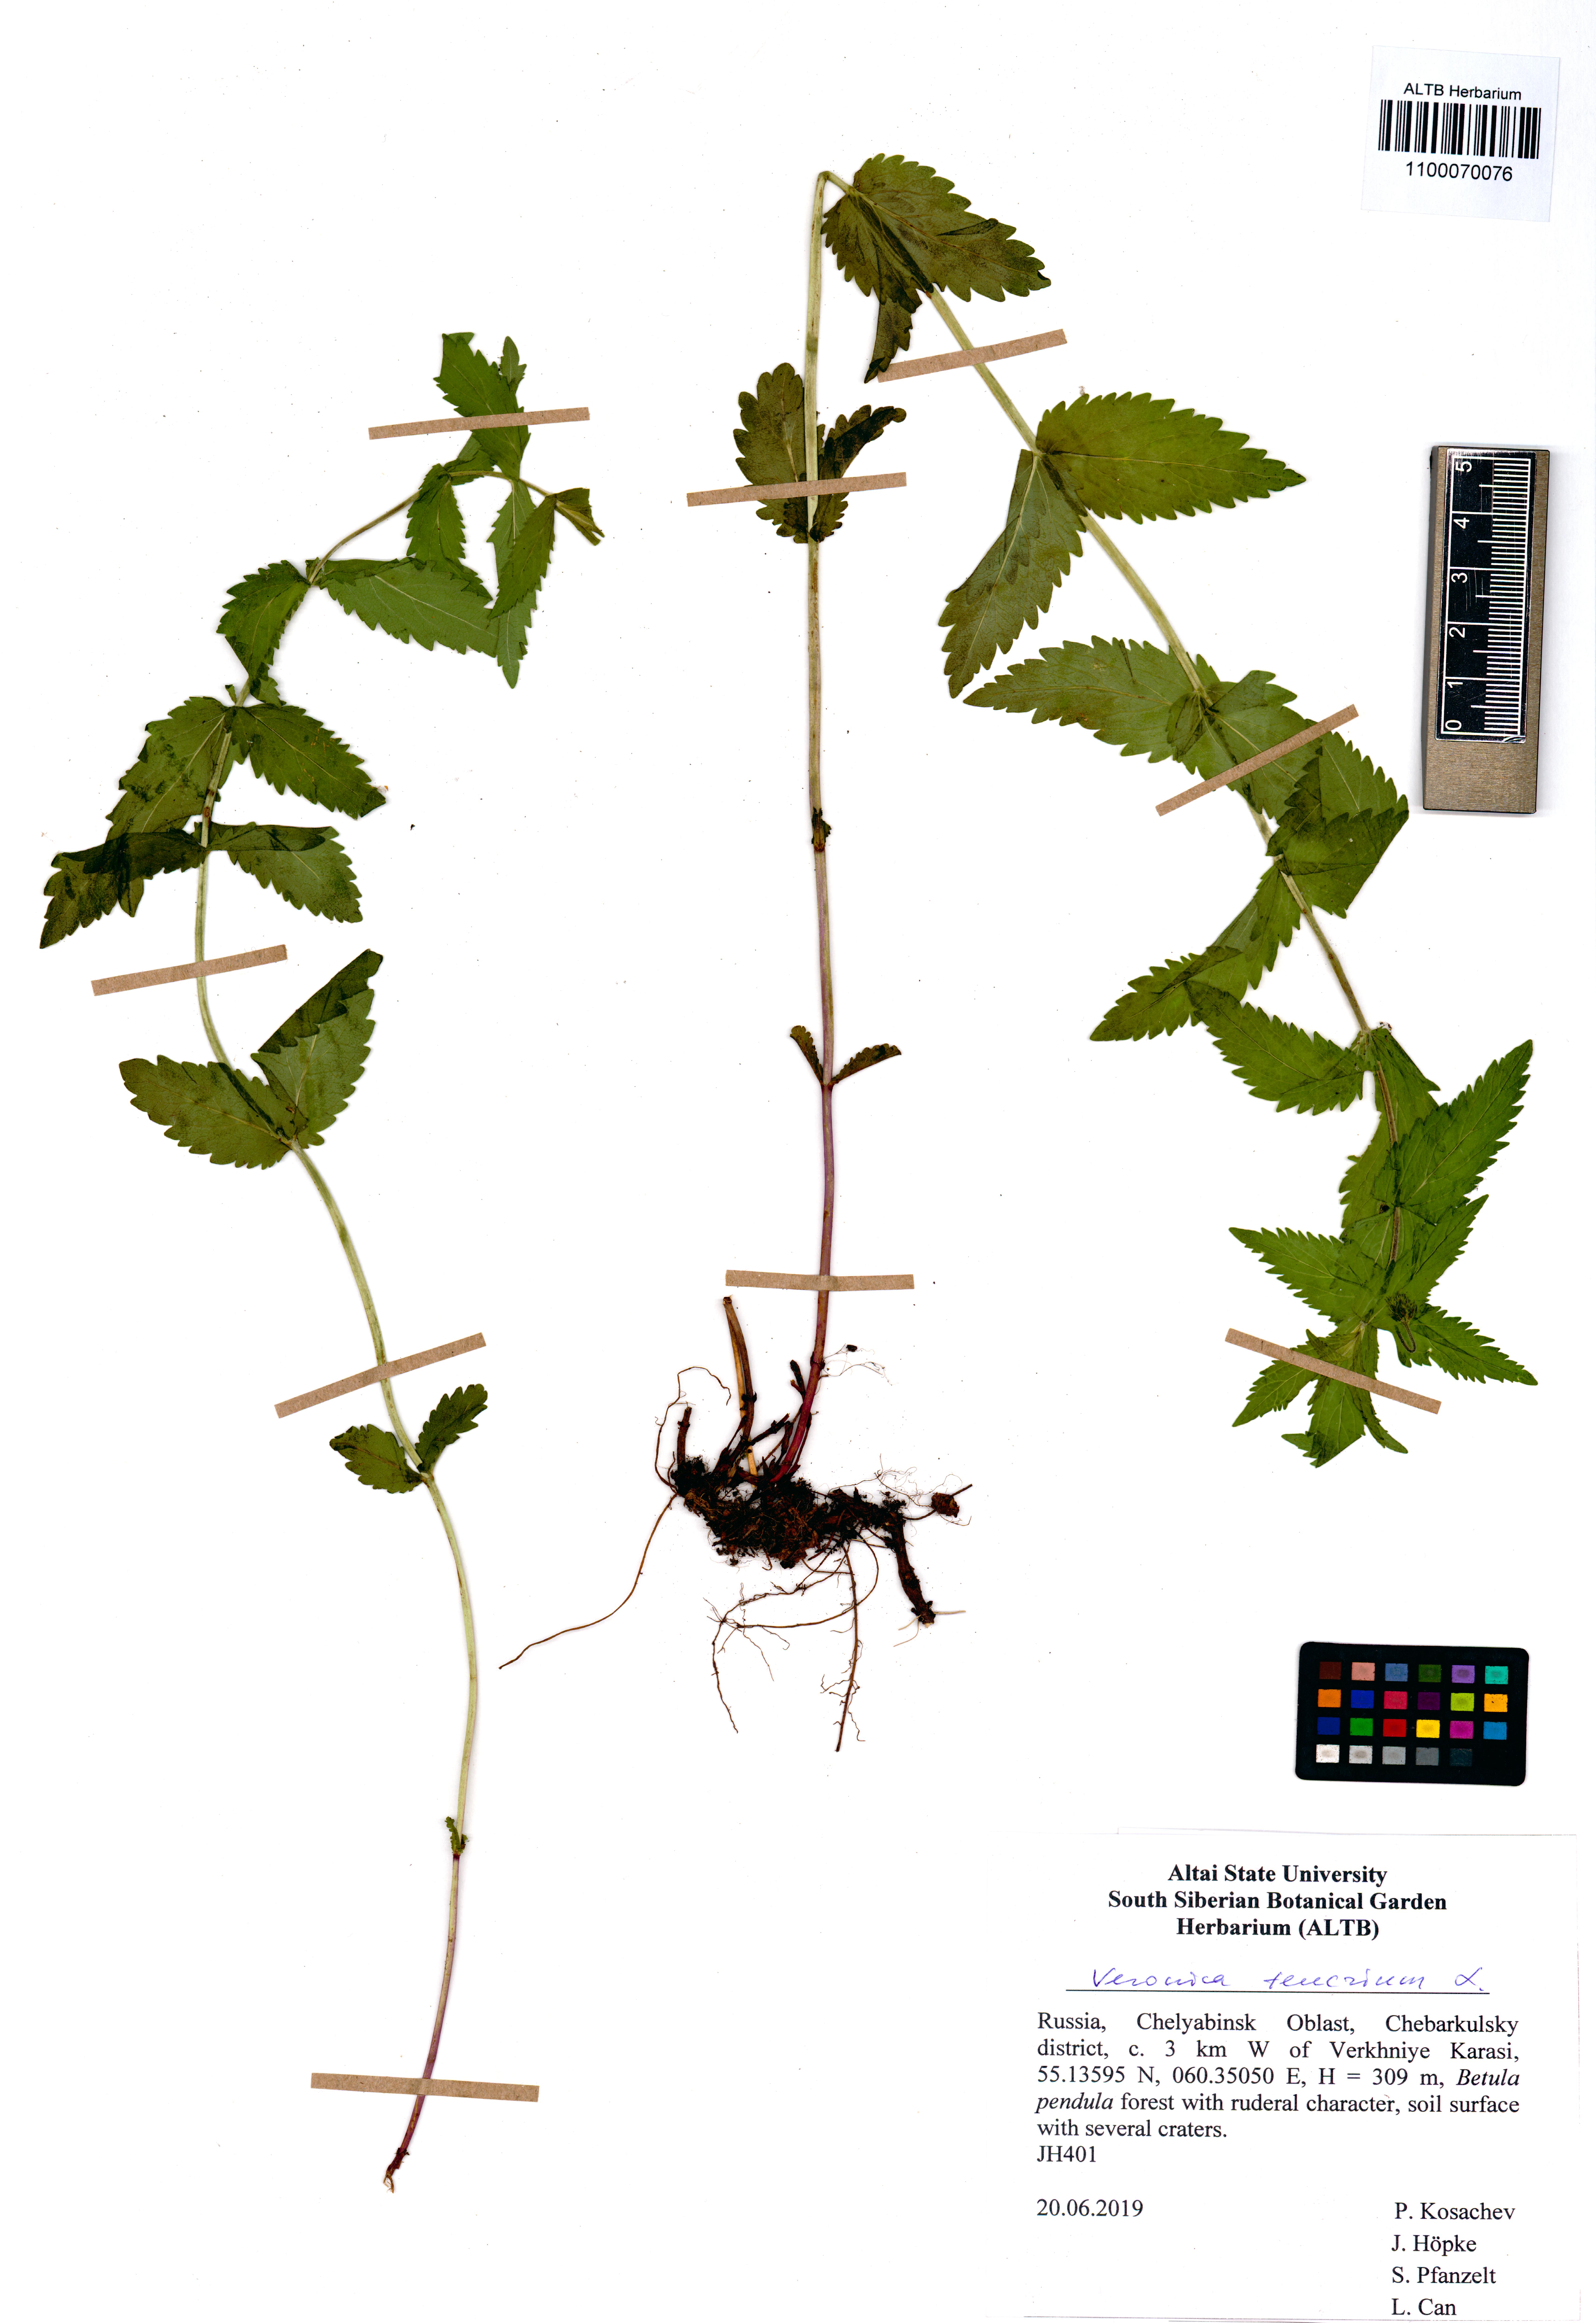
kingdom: Plantae
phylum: Tracheophyta
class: Magnoliopsida
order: Lamiales
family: Plantaginaceae
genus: Veronica
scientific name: Veronica teucrium
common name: Large speedwell
